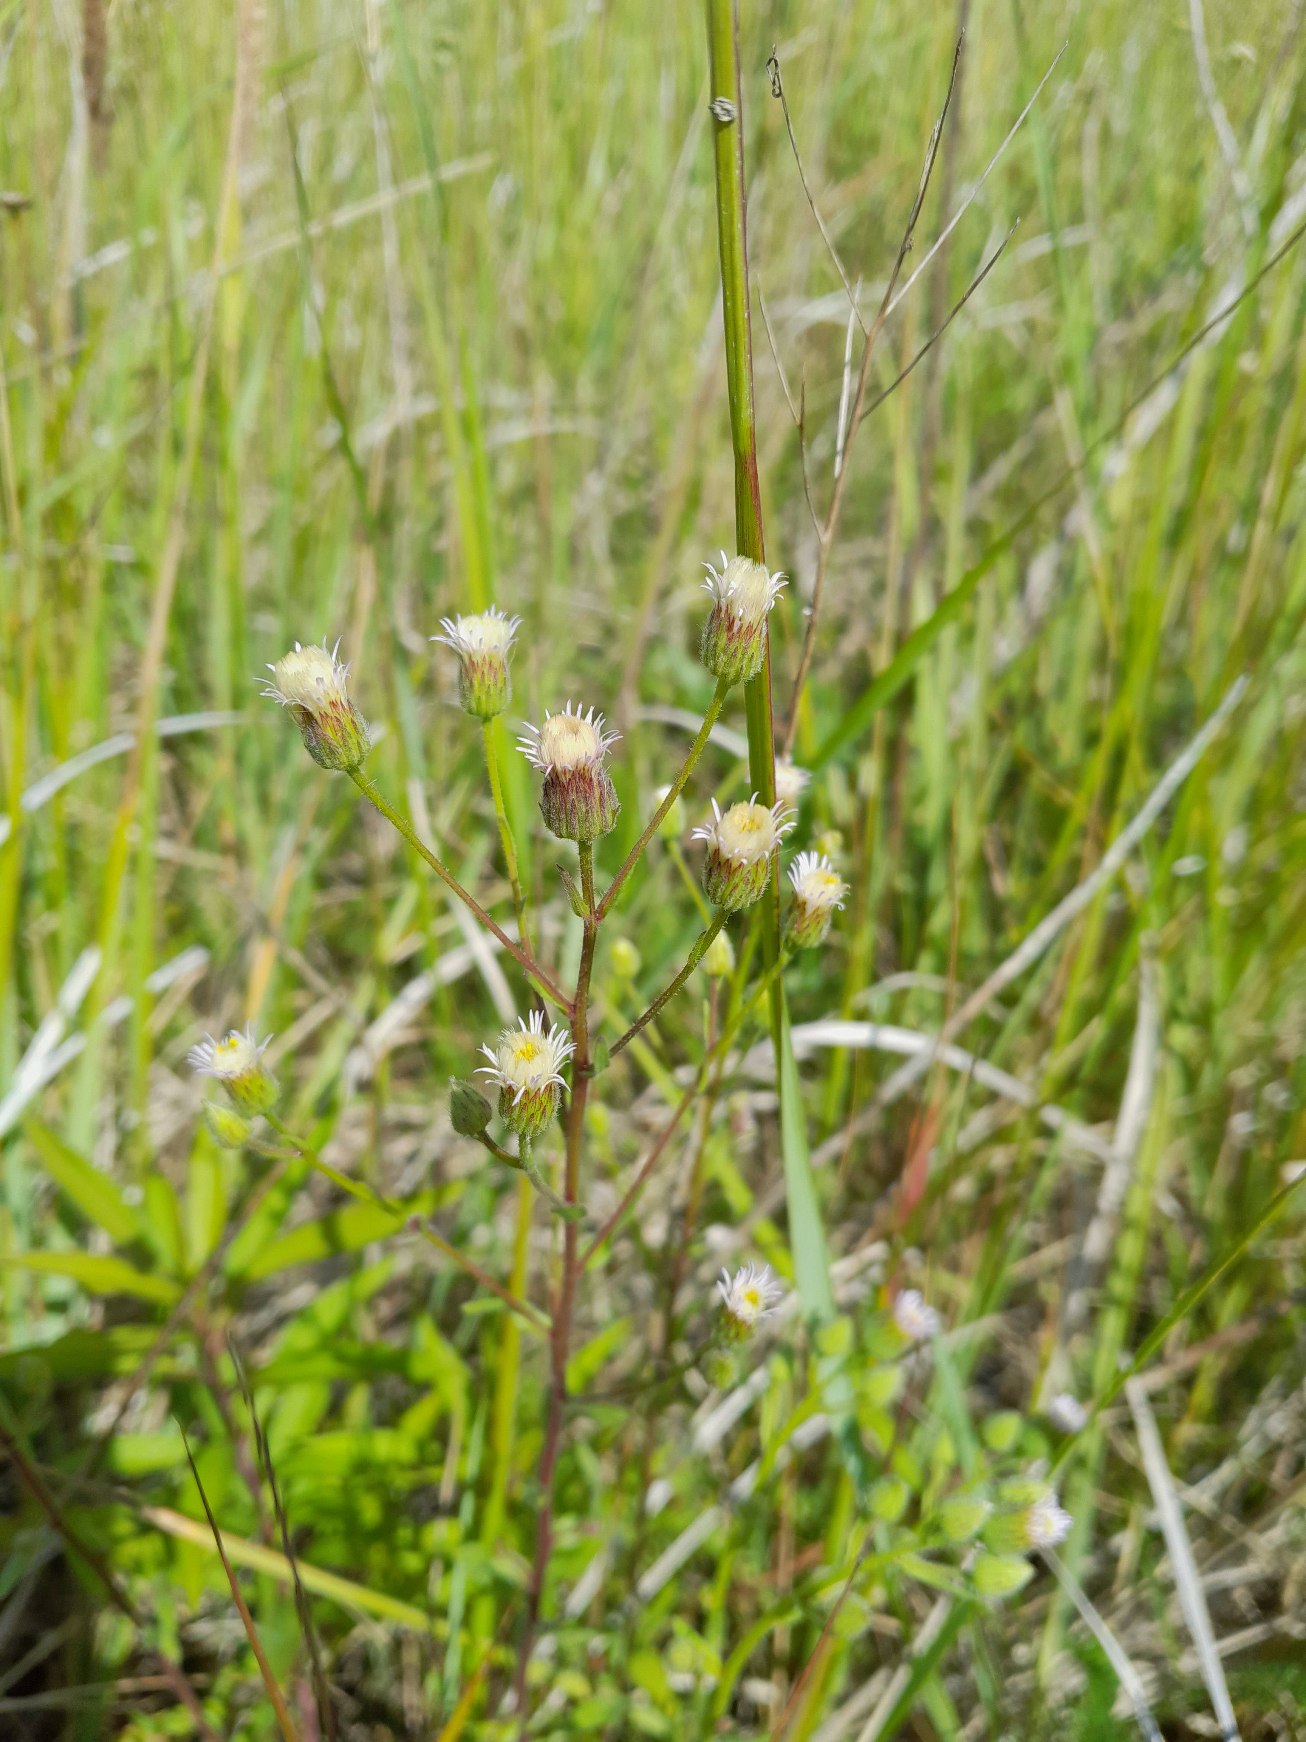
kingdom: Plantae
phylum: Tracheophyta
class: Magnoliopsida
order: Asterales
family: Asteraceae
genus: Erigeron
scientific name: Erigeron acris
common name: Bitter bakkestjerne
